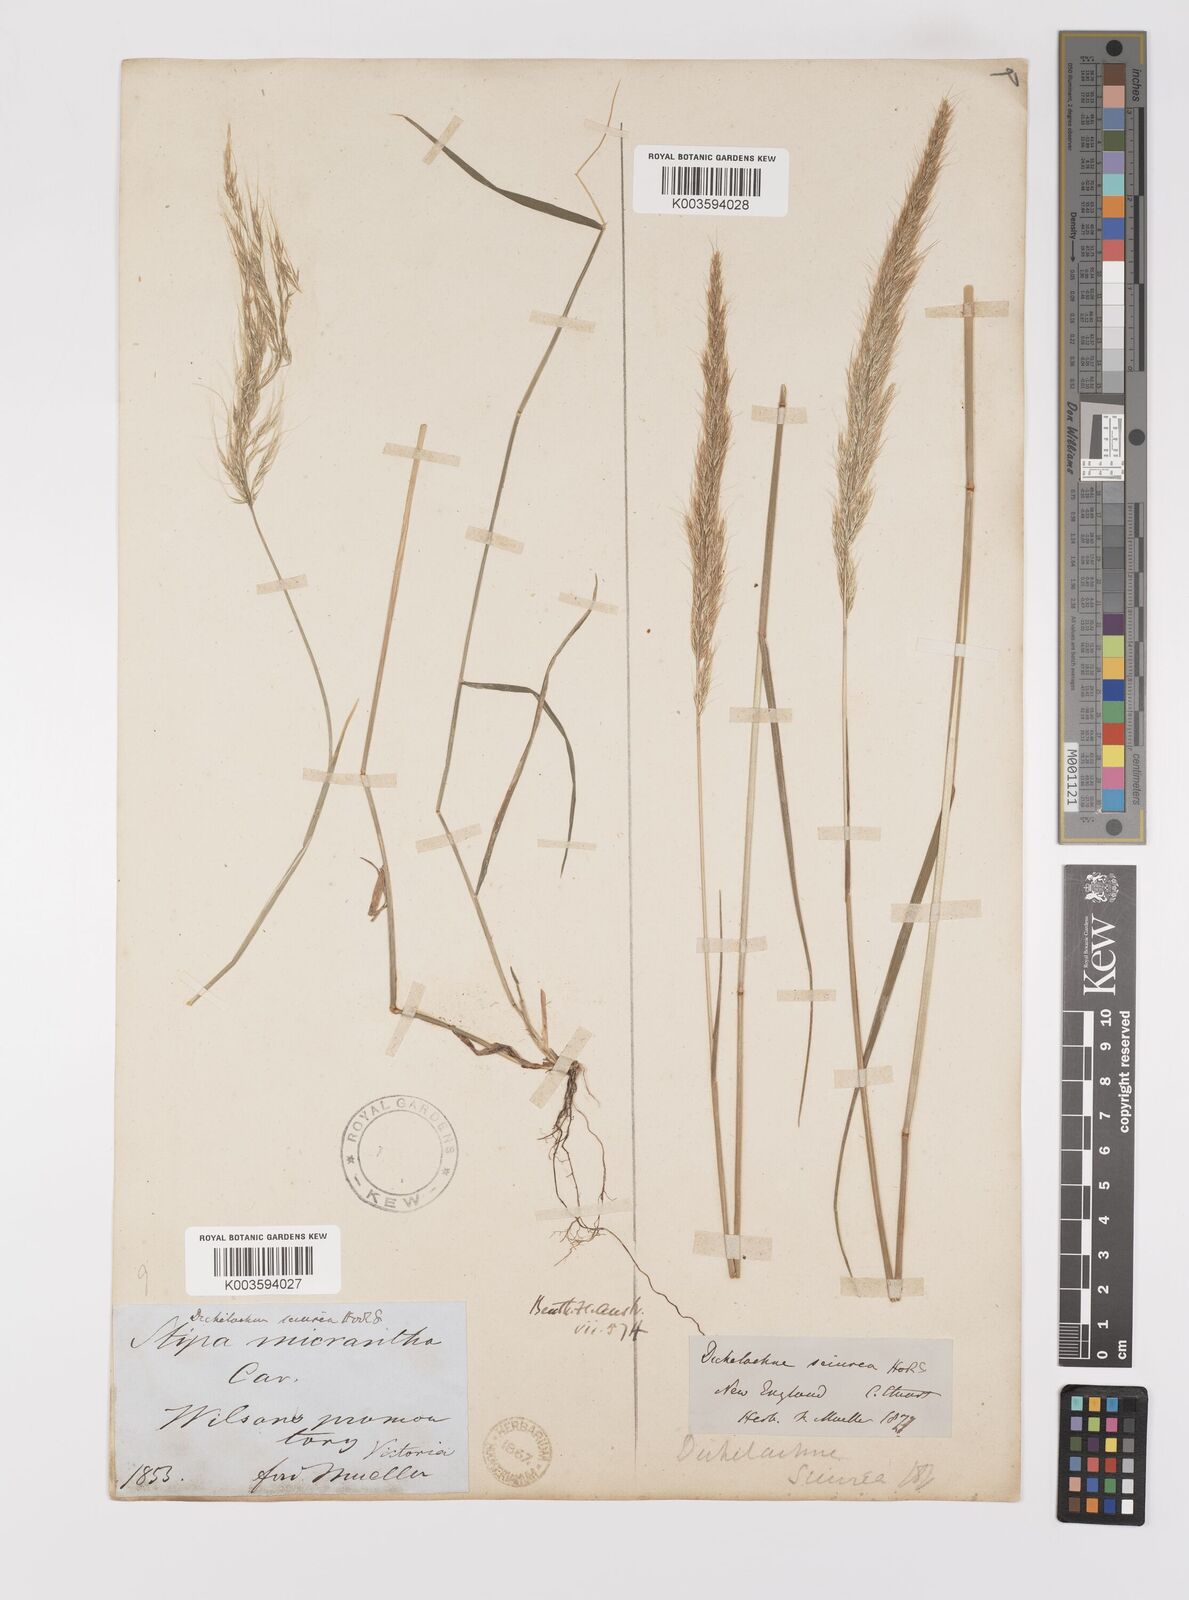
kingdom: Plantae
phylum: Tracheophyta
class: Liliopsida
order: Poales
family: Poaceae
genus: Dichelachne
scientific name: Dichelachne micrantha
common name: Plumegrass
